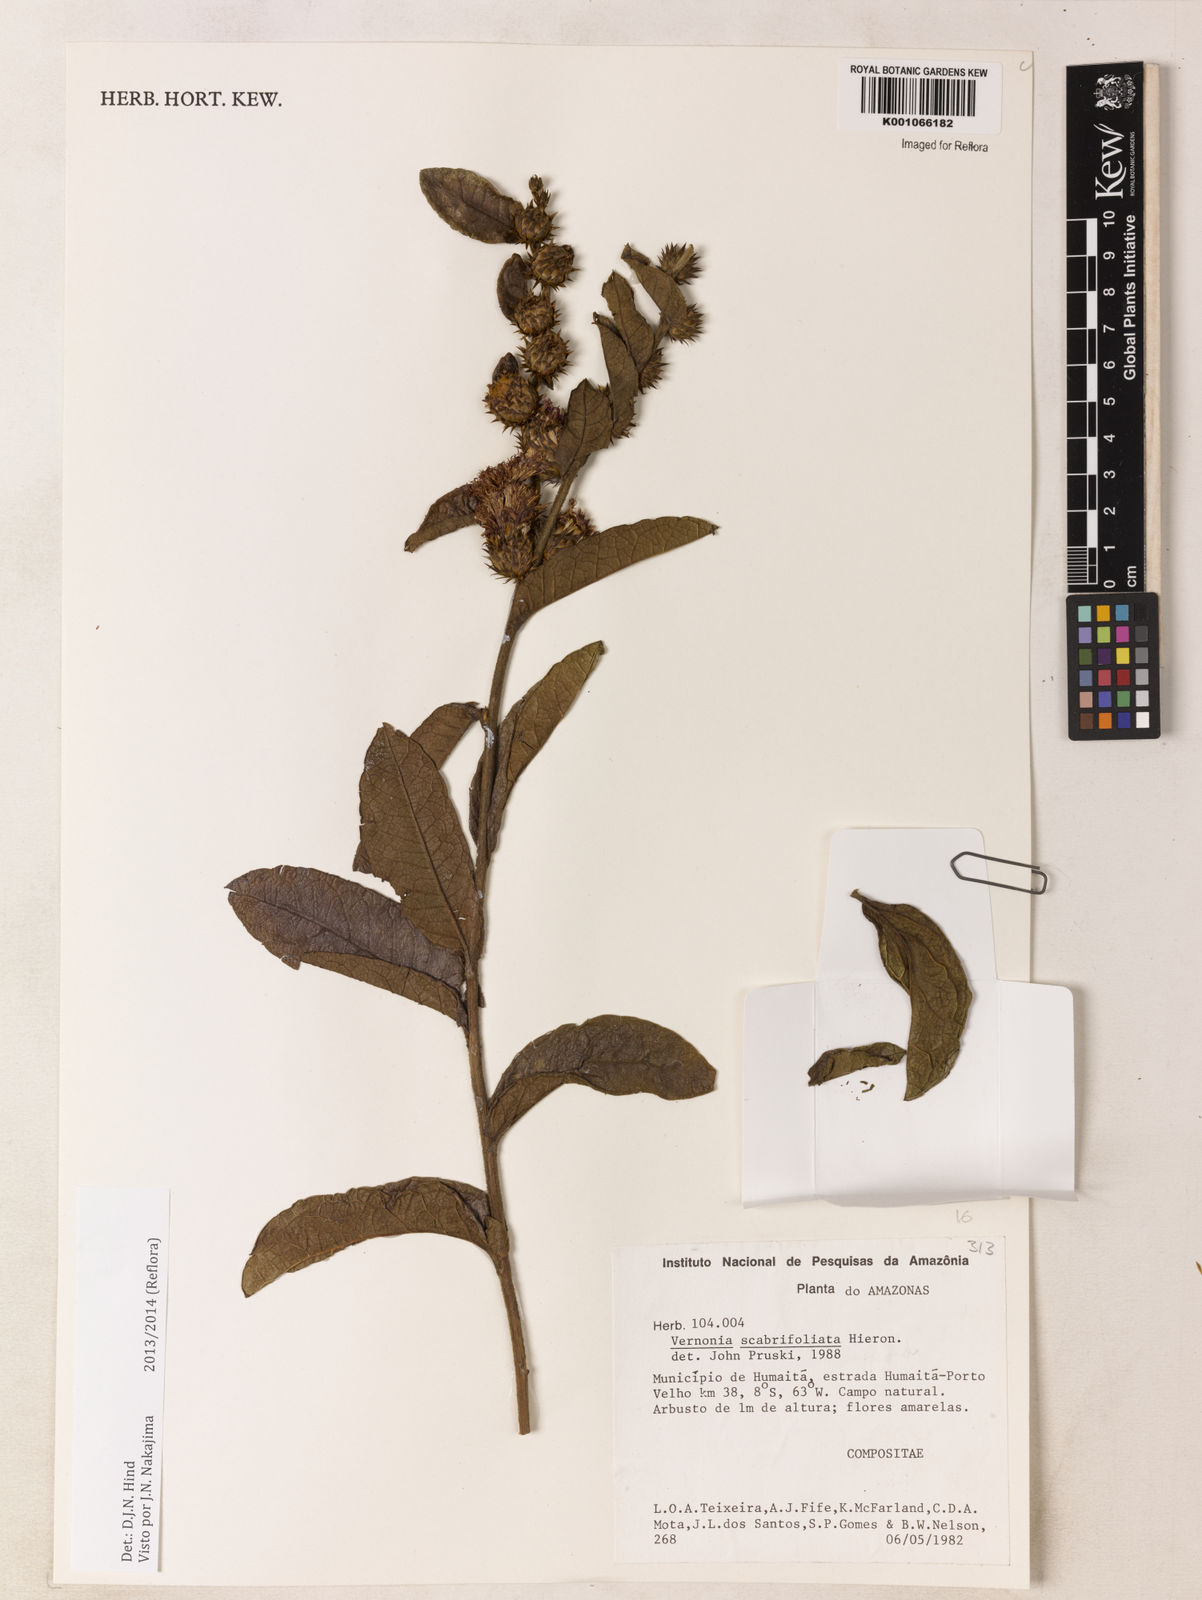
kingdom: Plantae
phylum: Tracheophyta
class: Magnoliopsida
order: Asterales
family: Asteraceae
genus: Vernonia
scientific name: Vernonia
